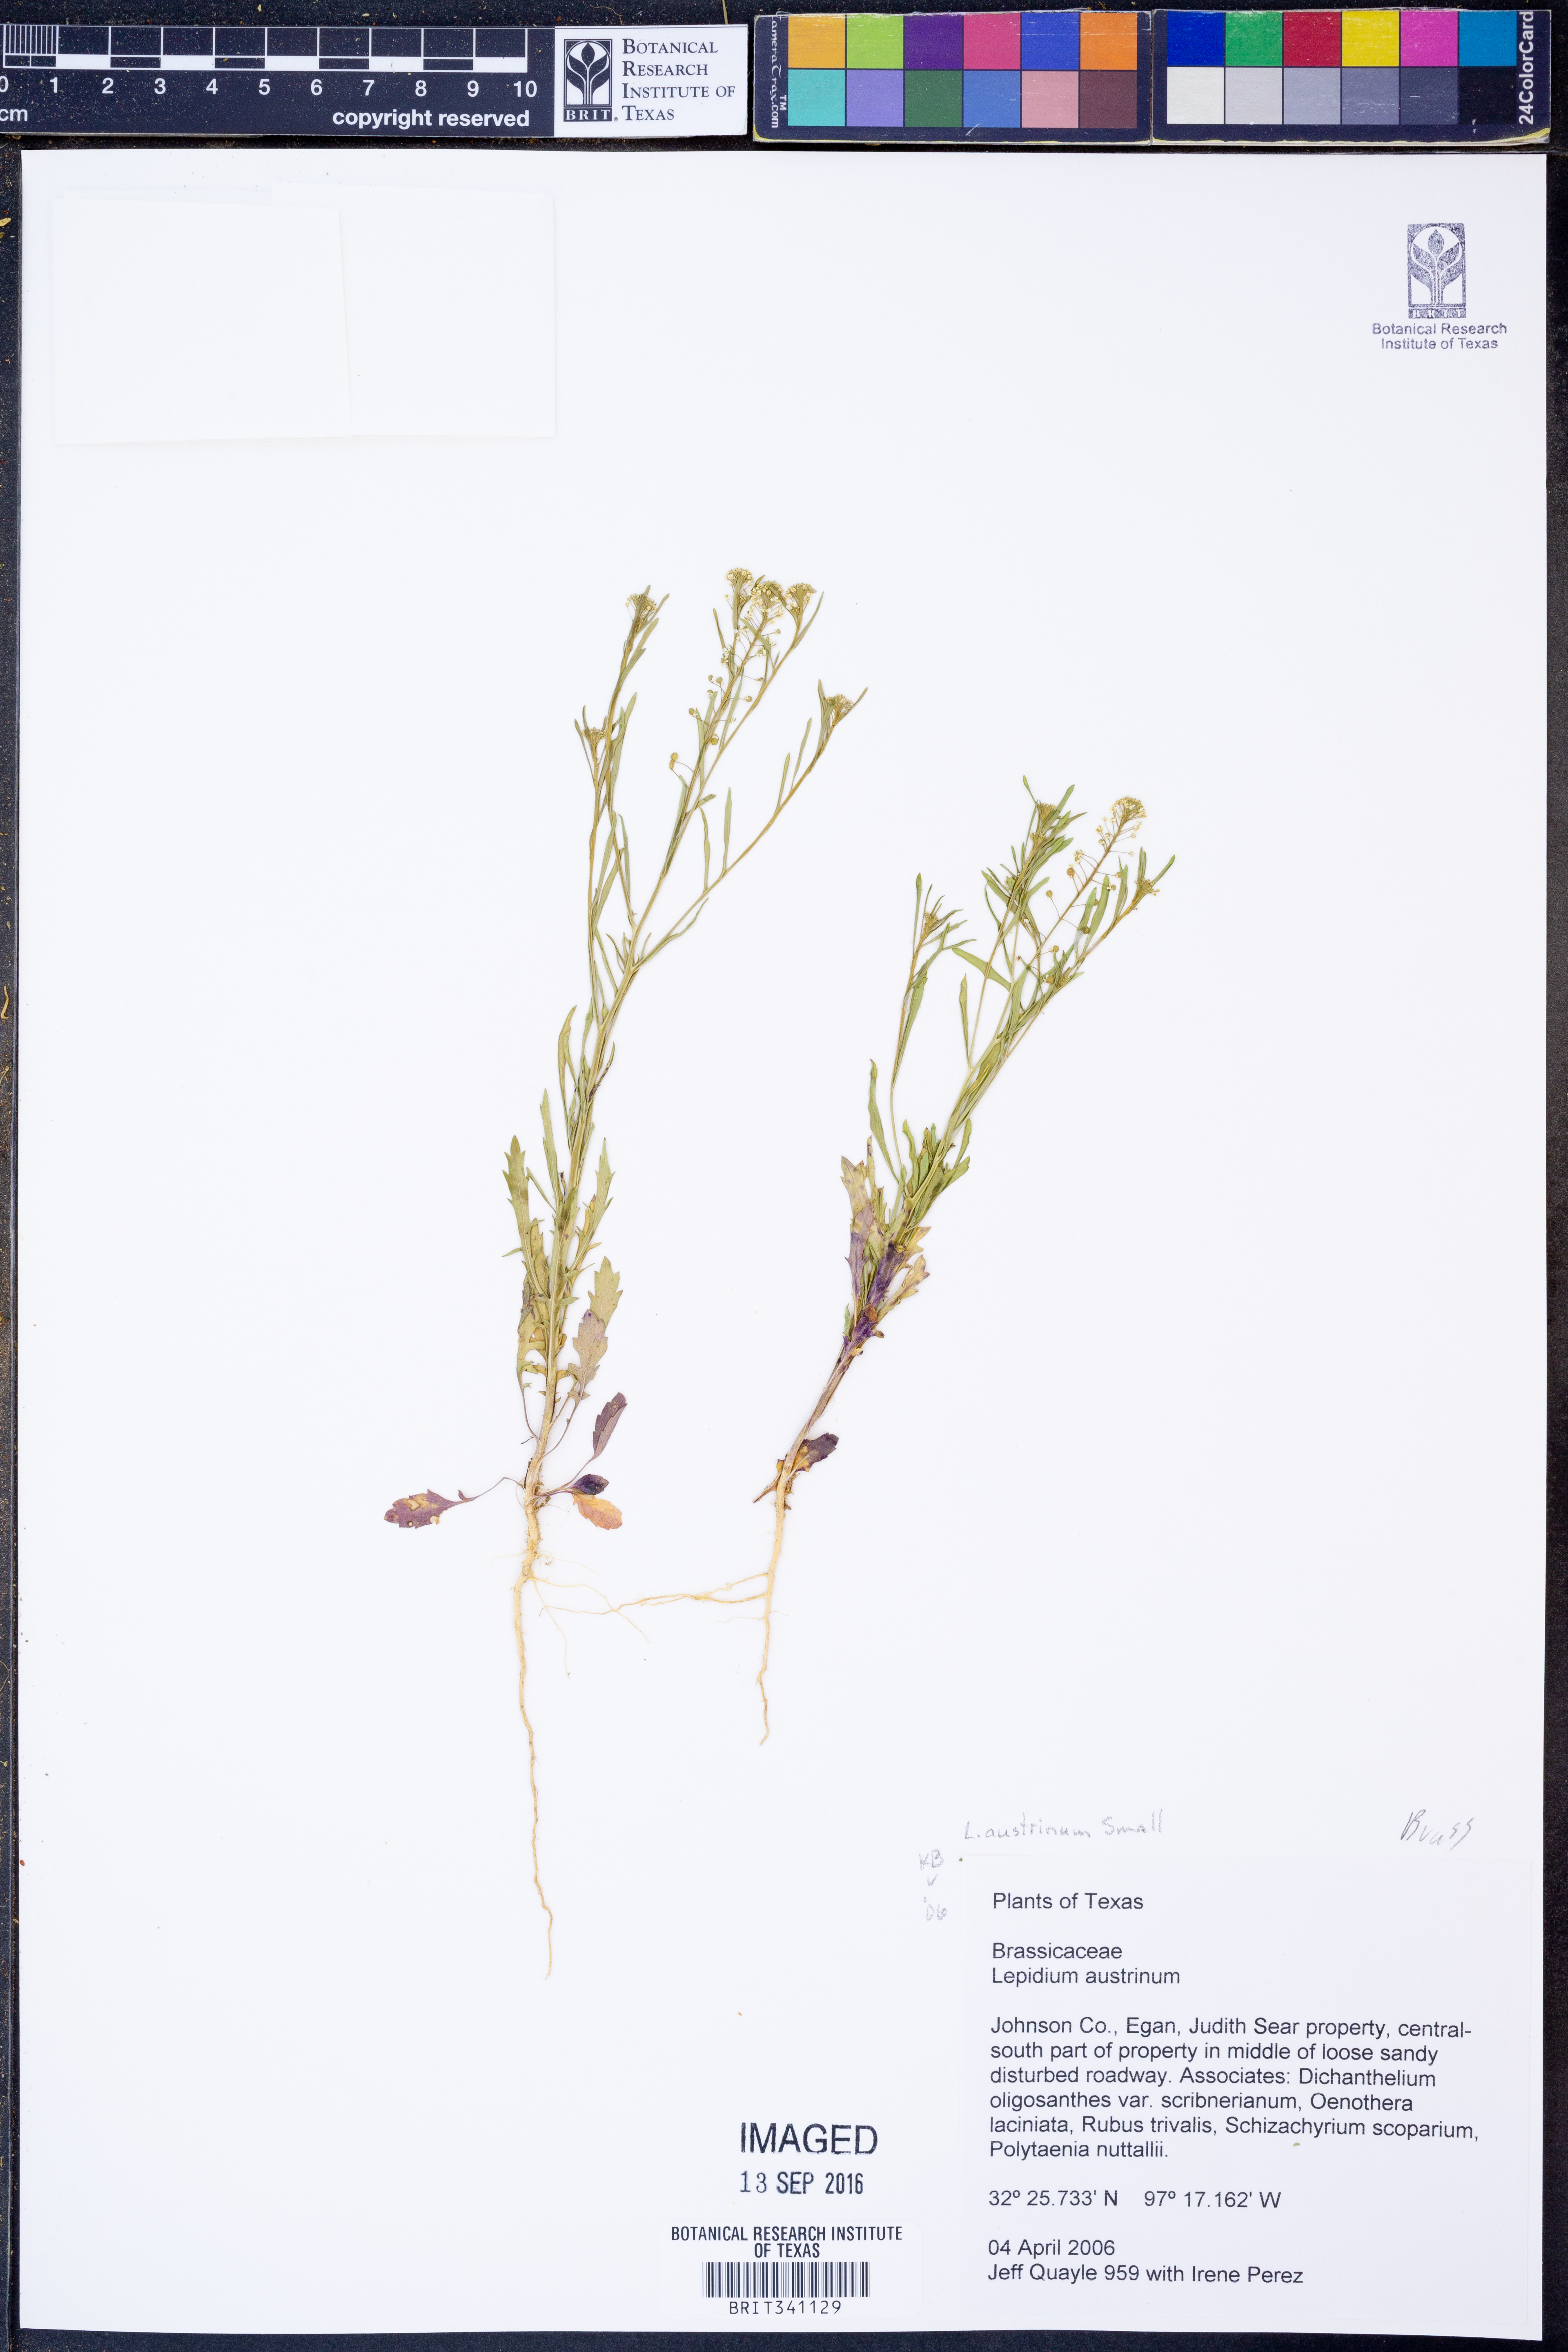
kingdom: Plantae
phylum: Tracheophyta
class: Magnoliopsida
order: Brassicales
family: Brassicaceae
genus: Lepidium
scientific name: Lepidium austrinum
